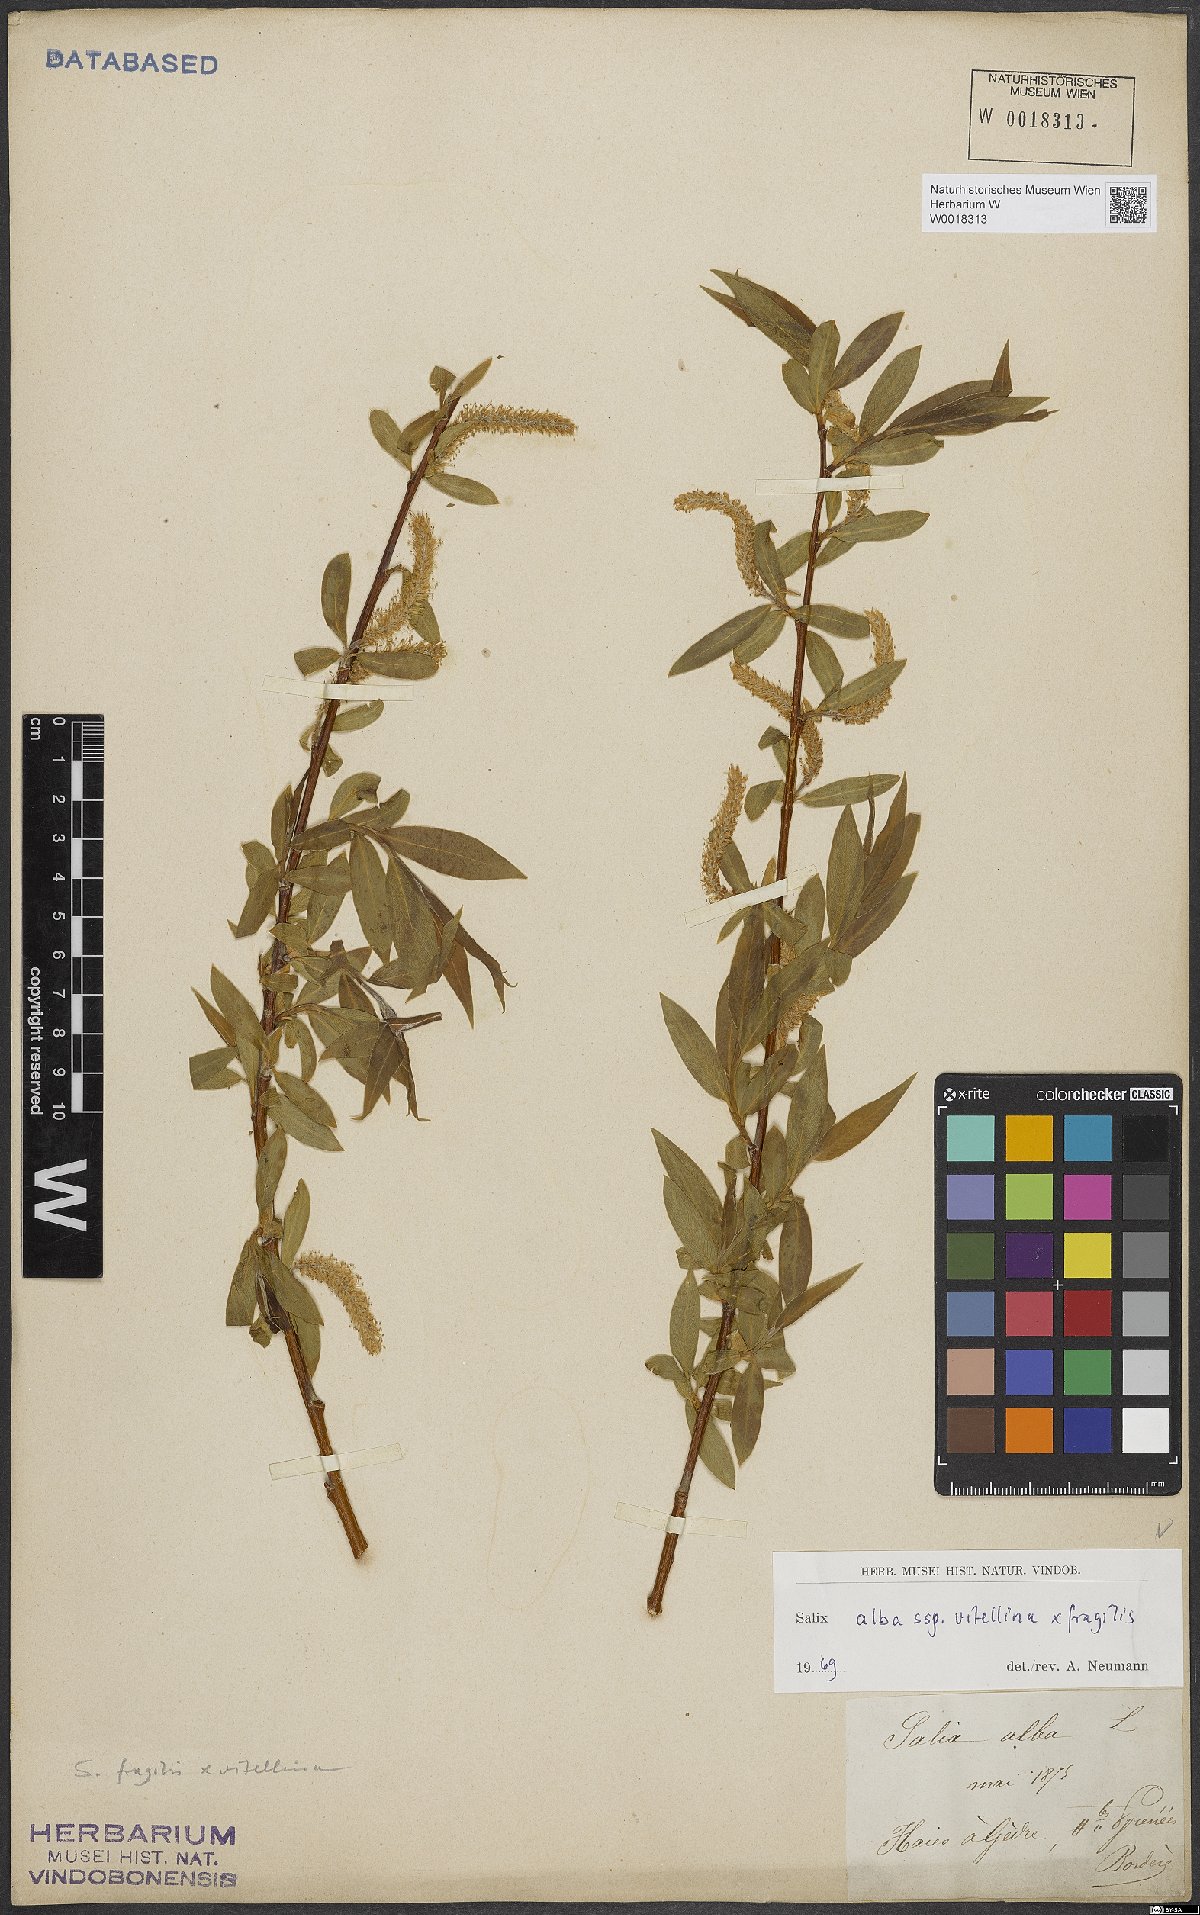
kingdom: Plantae
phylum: Tracheophyta
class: Magnoliopsida
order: Malpighiales
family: Salicaceae
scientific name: Salicaceae
